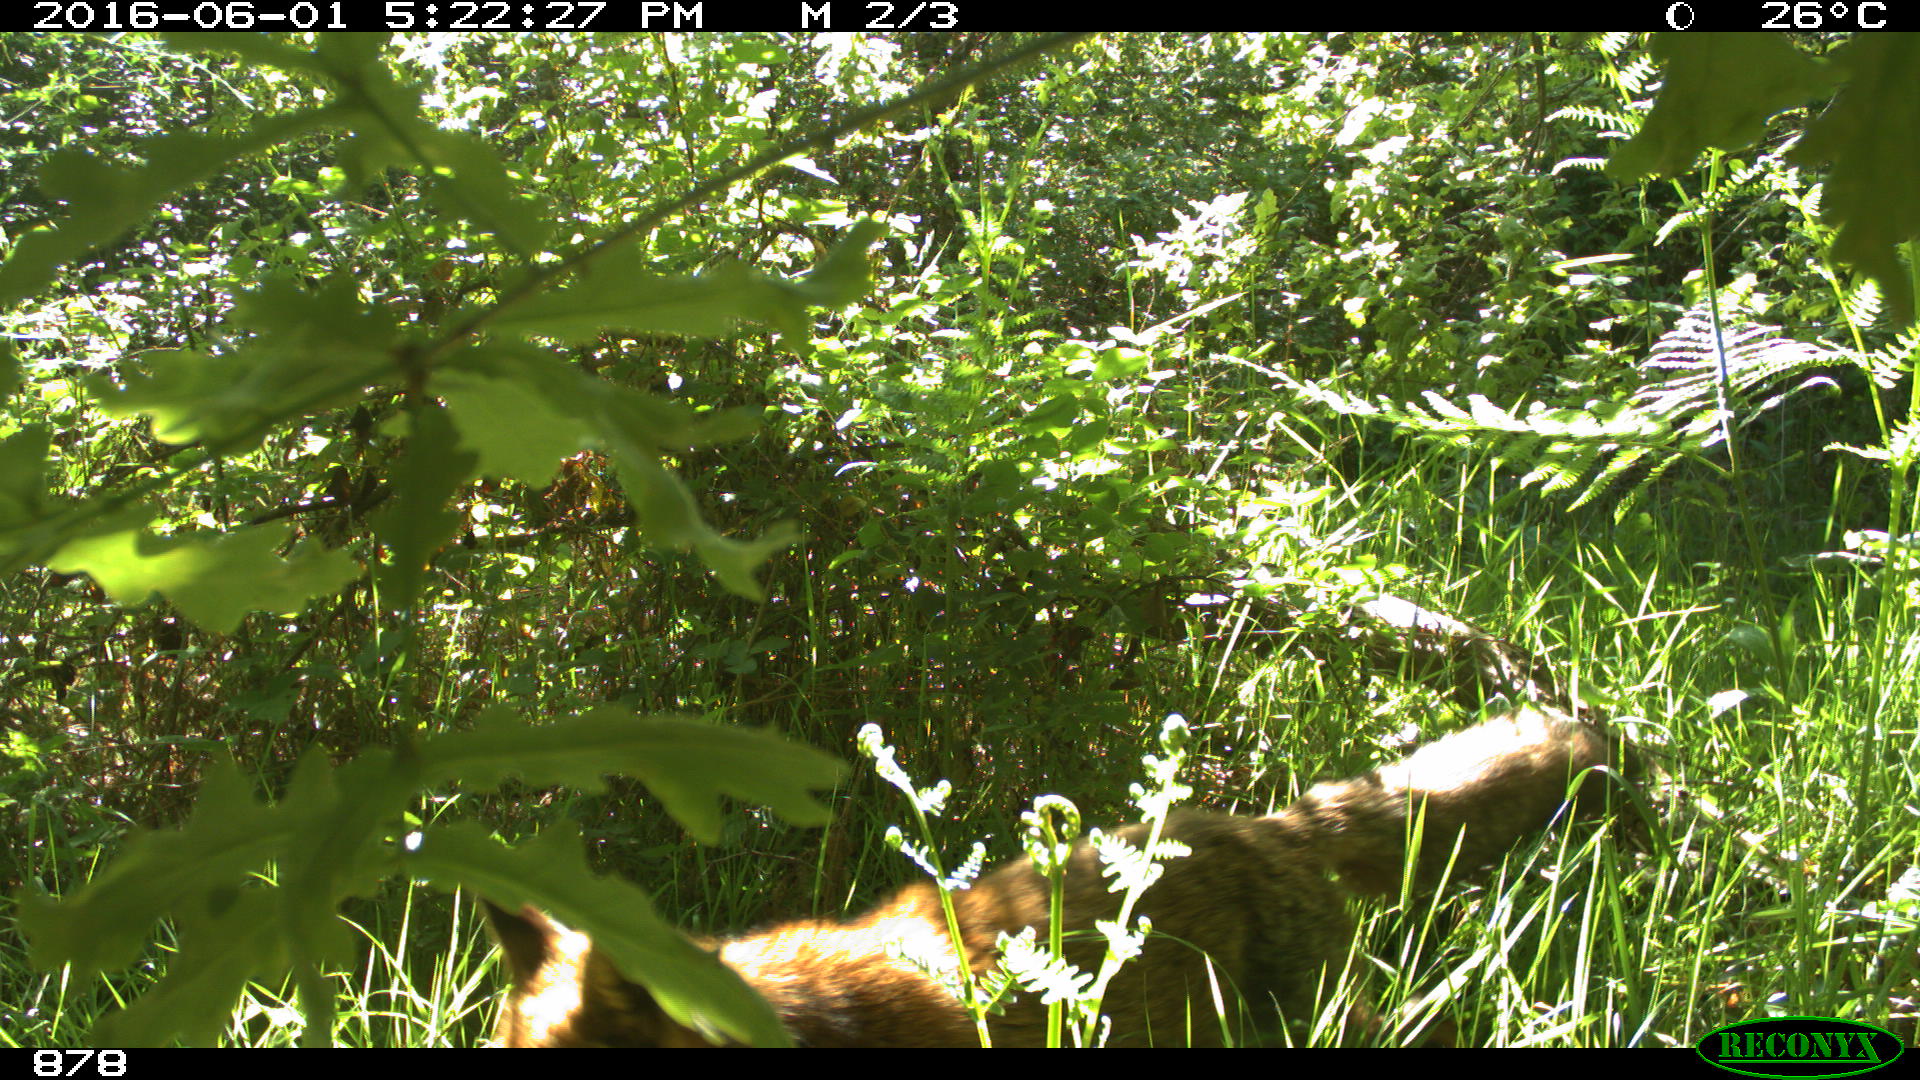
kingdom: Animalia
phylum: Chordata
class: Mammalia
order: Carnivora
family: Canidae
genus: Vulpes
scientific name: Vulpes vulpes
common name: Red fox
